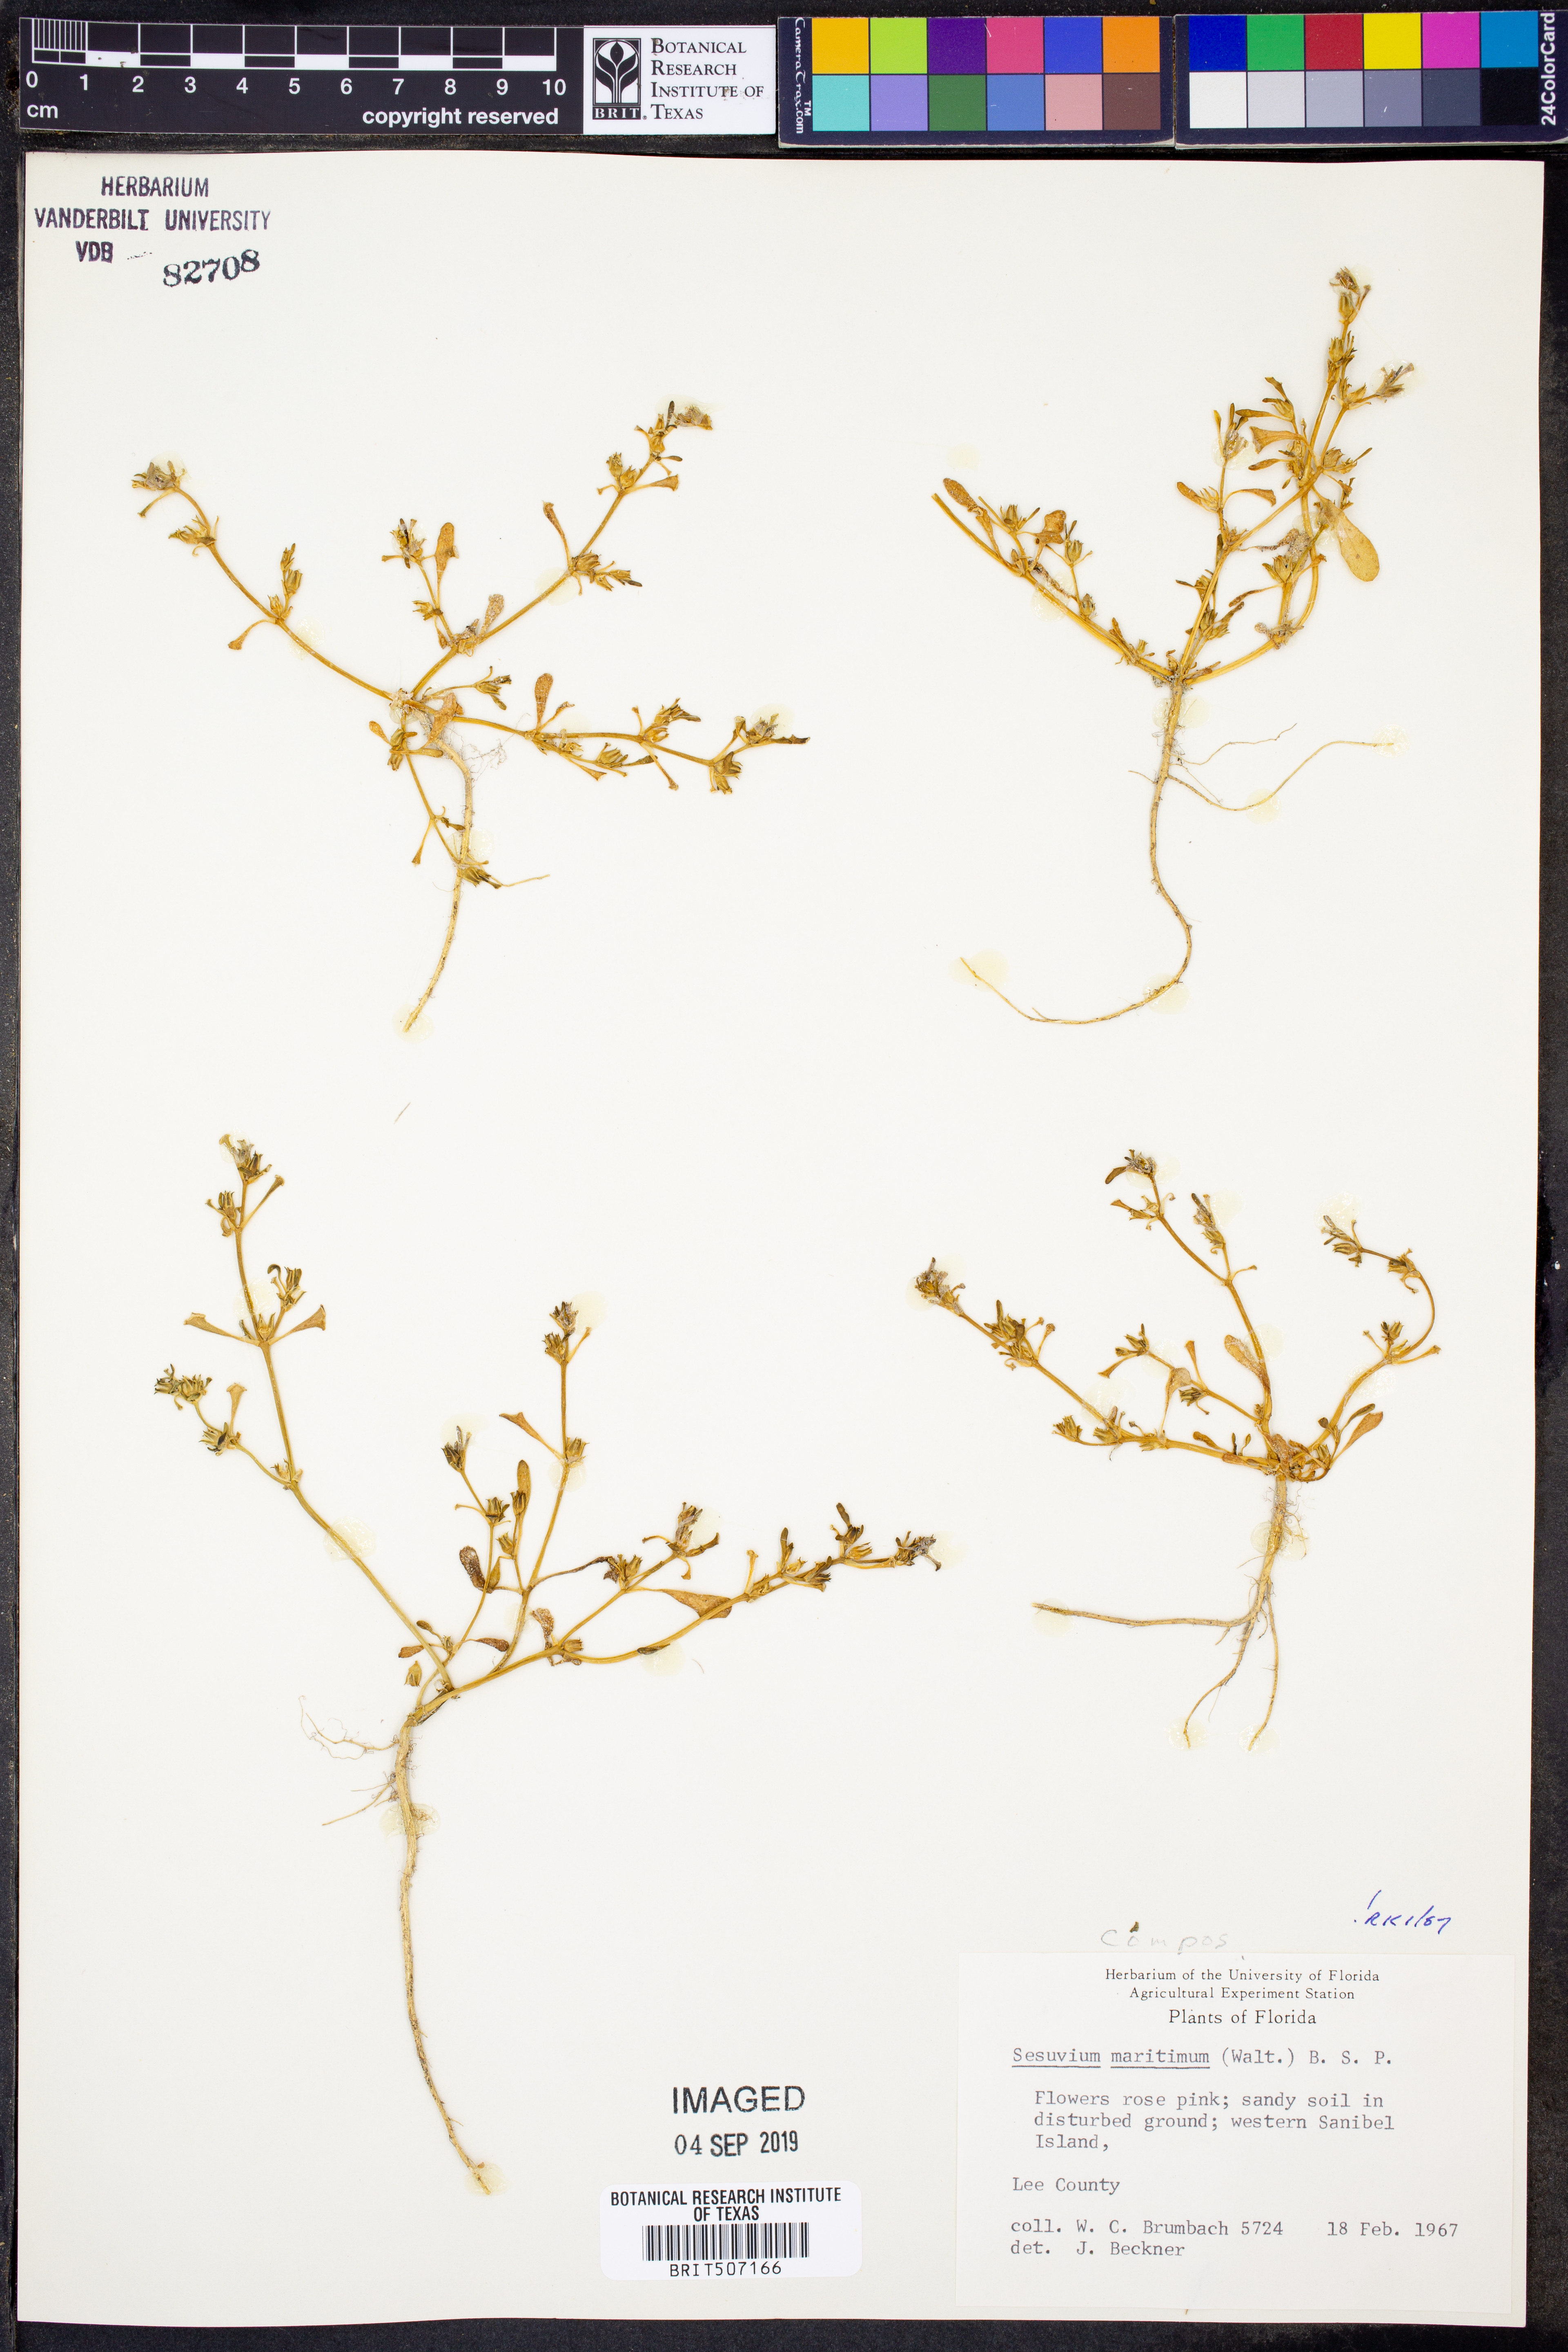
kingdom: Plantae
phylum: Tracheophyta
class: Magnoliopsida
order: Caryophyllales
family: Aizoaceae
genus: Sesuvium
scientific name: Sesuvium maritimum
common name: Slender sea-purslane
